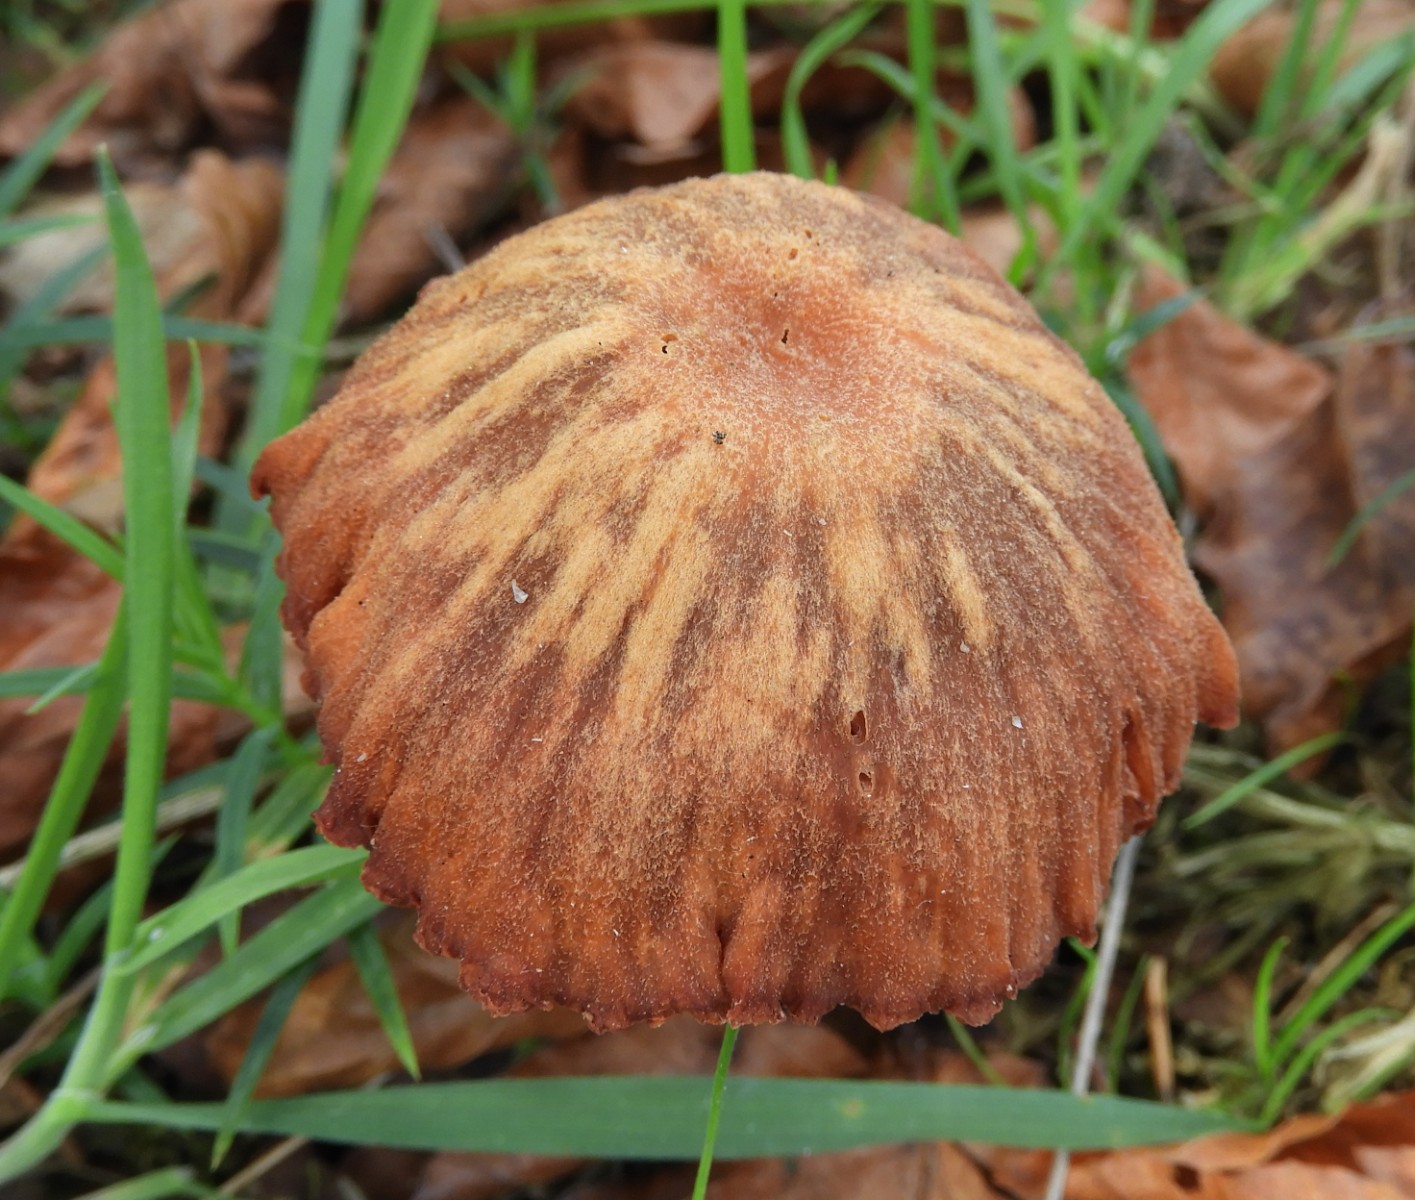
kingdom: Fungi
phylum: Basidiomycota
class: Agaricomycetes
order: Agaricales
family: Hydnangiaceae
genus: Laccaria
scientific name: Laccaria proxima
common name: stor ametysthat
